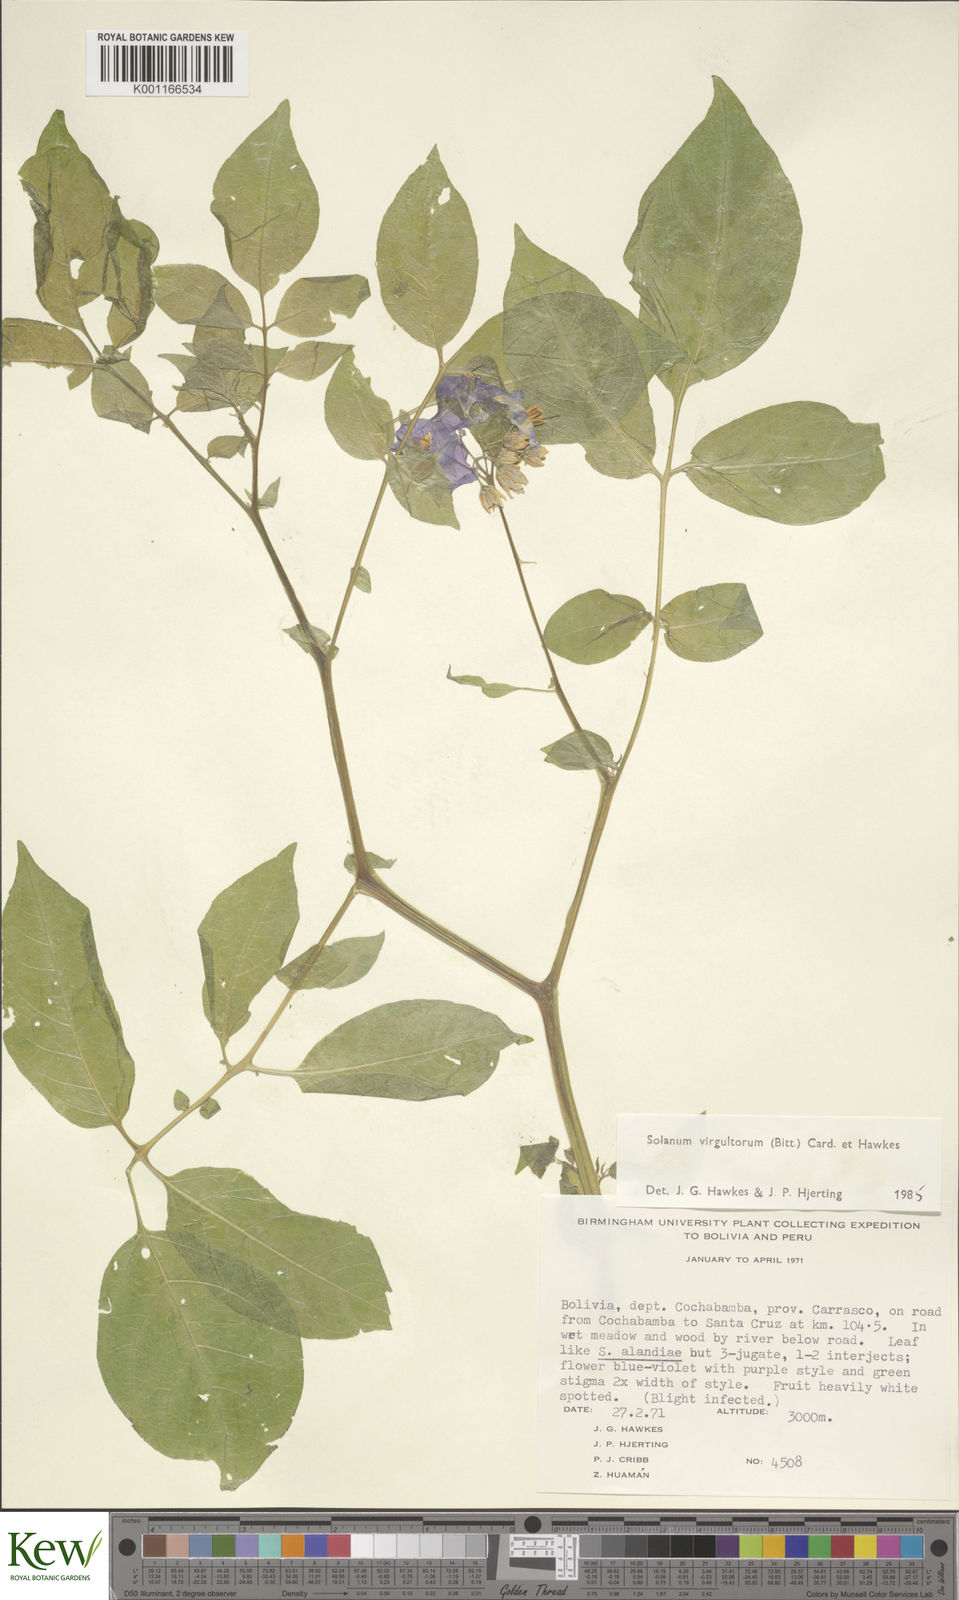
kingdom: Plantae
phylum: Tracheophyta
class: Magnoliopsida
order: Solanales
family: Solanaceae
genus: Solanum
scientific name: Solanum
